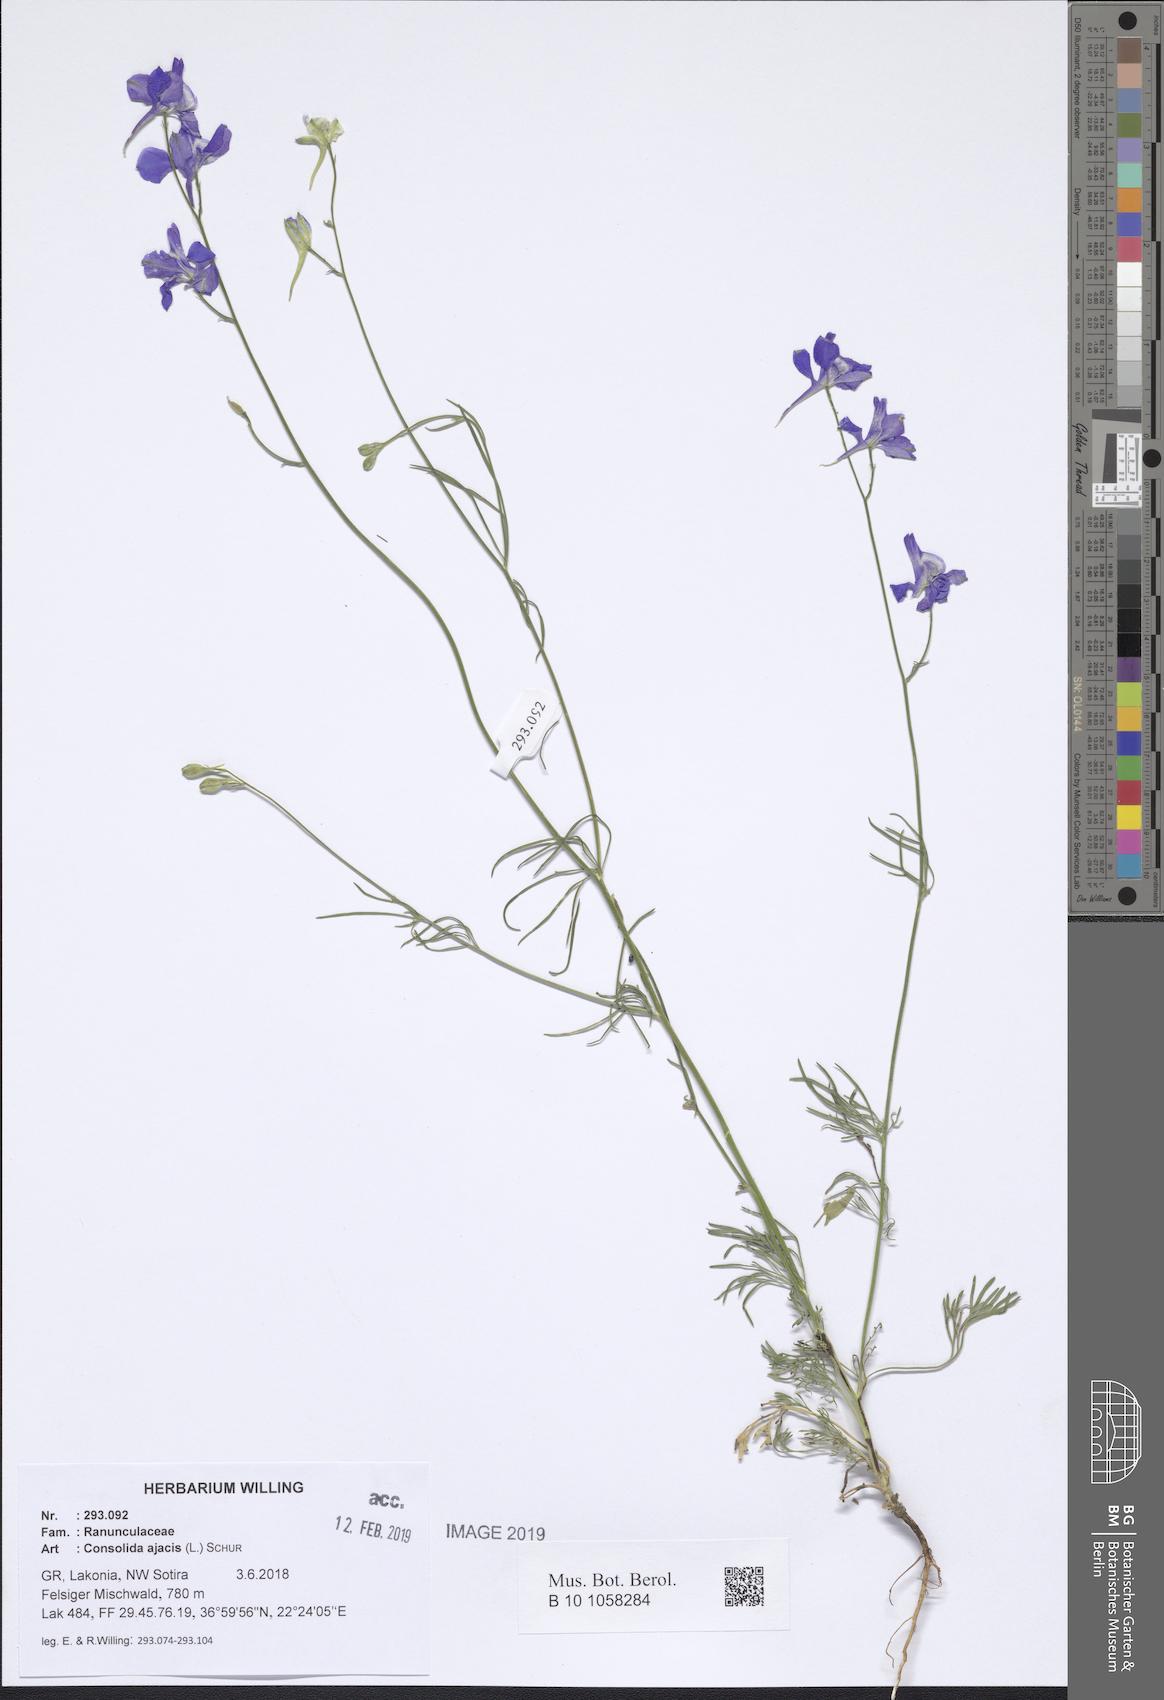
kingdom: Plantae
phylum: Tracheophyta
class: Magnoliopsida
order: Ranunculales
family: Ranunculaceae
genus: Delphinium
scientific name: Delphinium ajacis
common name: Doubtful knight's-spur
